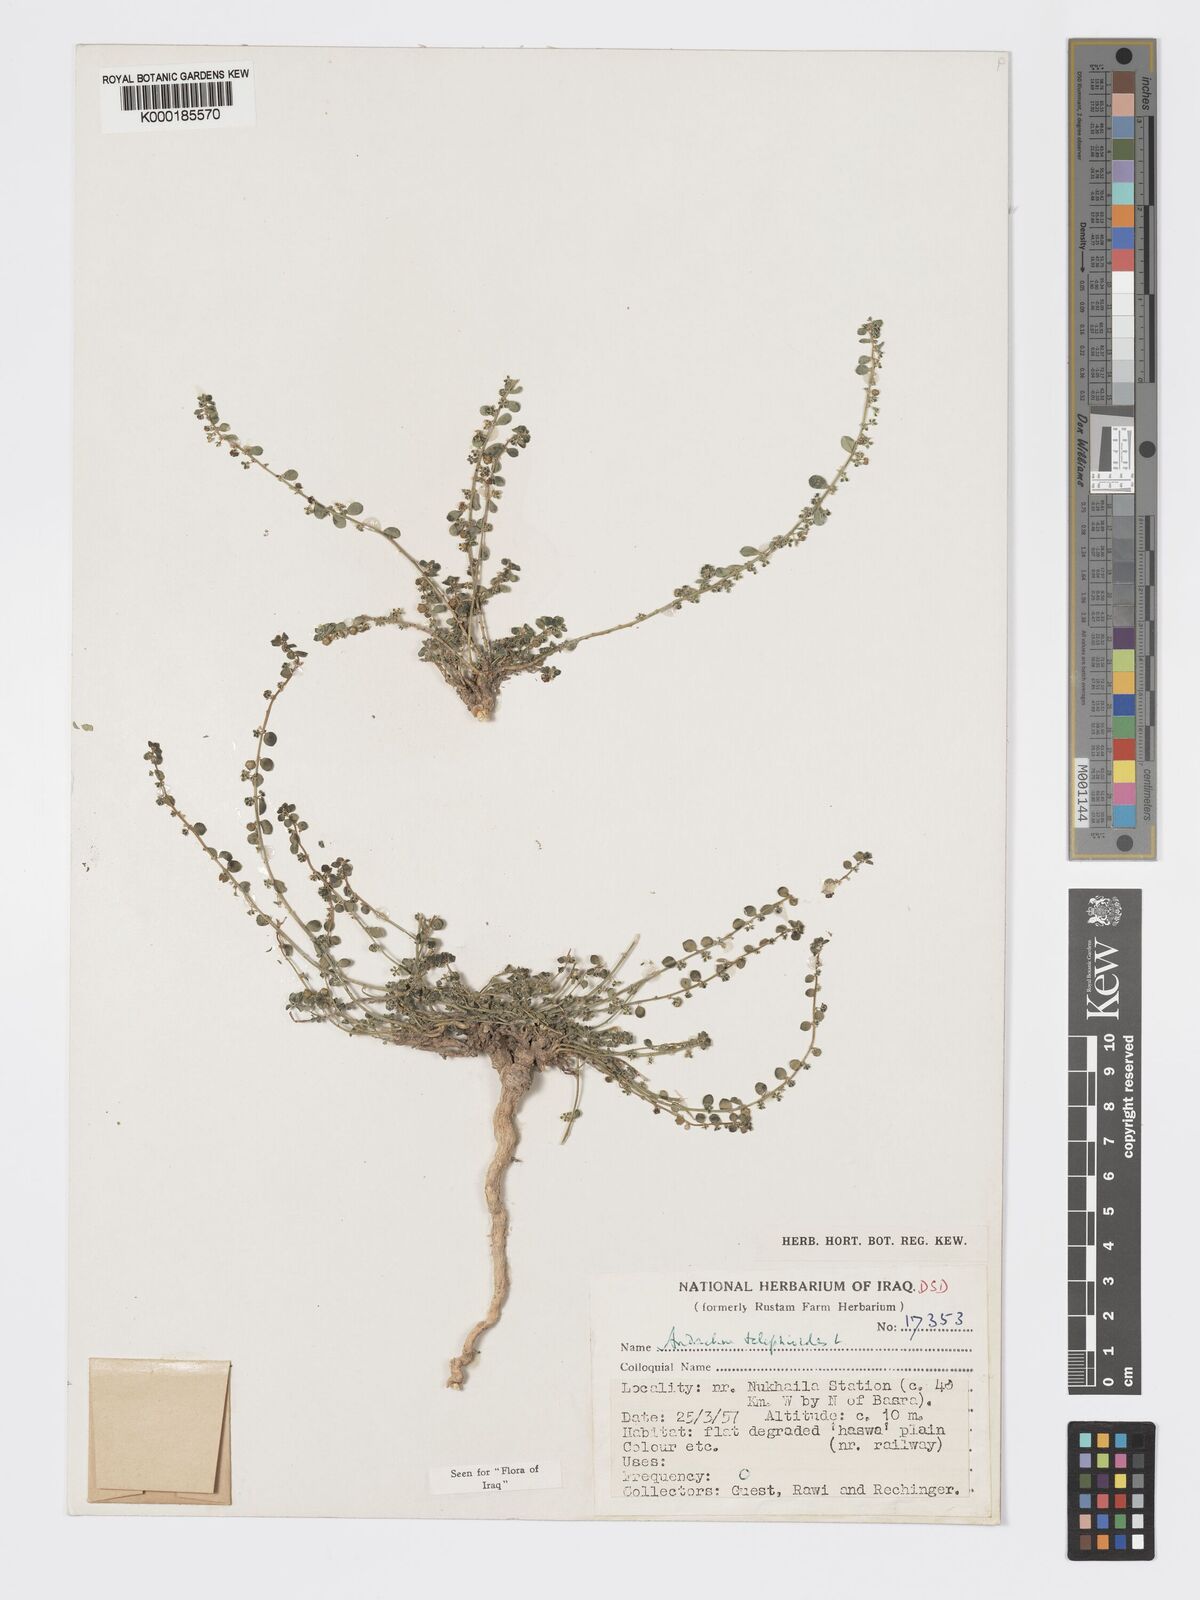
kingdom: Plantae
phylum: Tracheophyta
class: Magnoliopsida
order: Malpighiales
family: Phyllanthaceae
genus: Andrachne
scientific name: Andrachne telephioides
